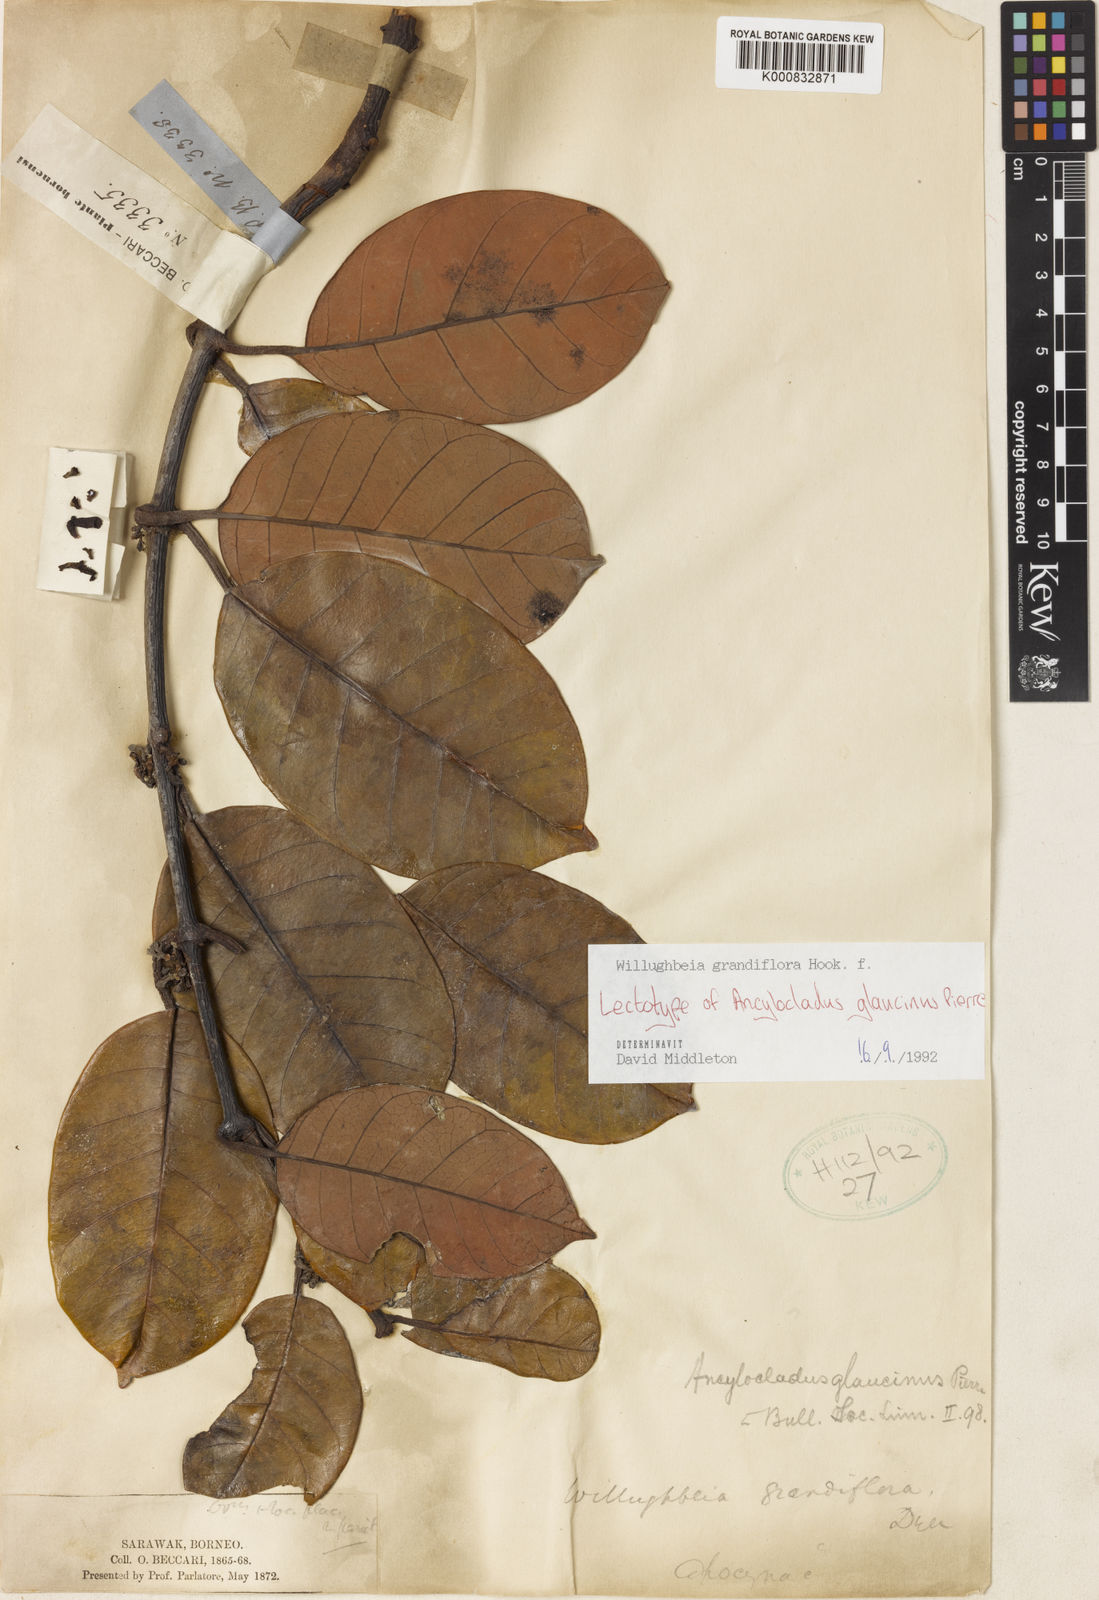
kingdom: Plantae
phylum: Tracheophyta
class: Magnoliopsida
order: Gentianales
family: Apocynaceae
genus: Willughbeia
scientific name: Willughbeia grandiflora
